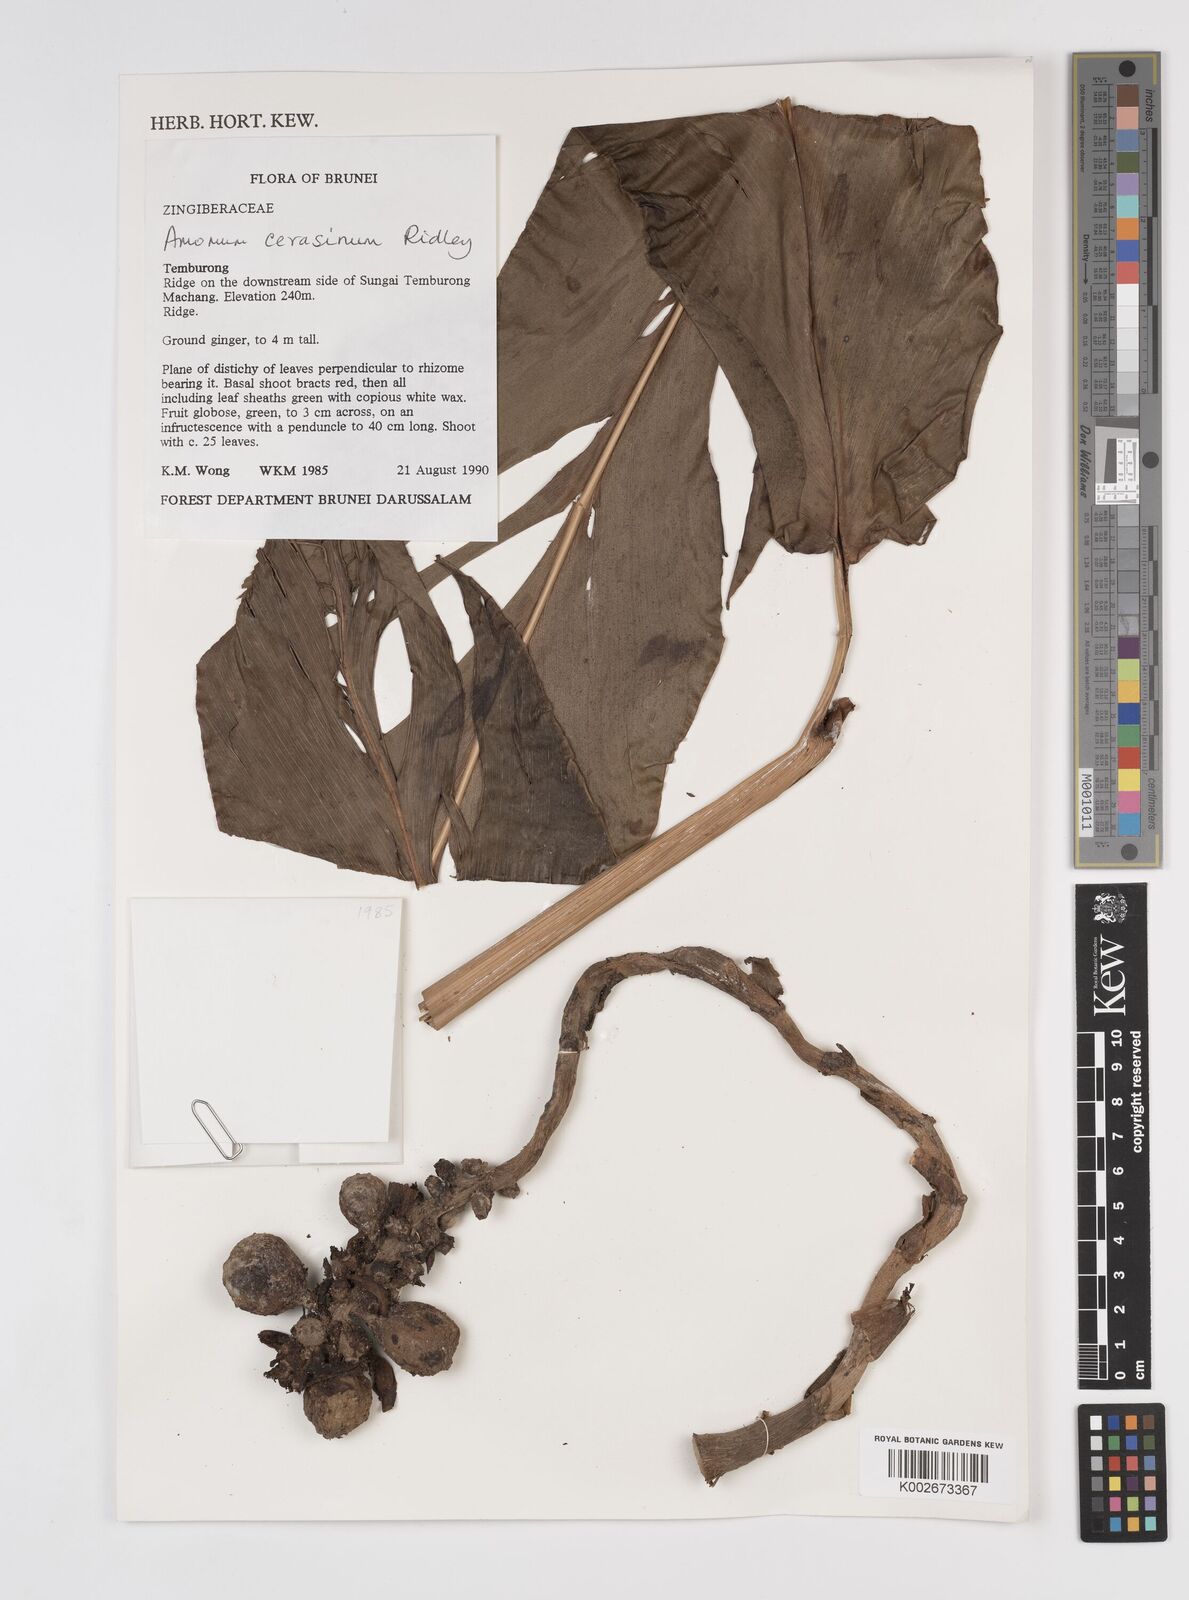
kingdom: Plantae
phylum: Tracheophyta
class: Liliopsida
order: Zingiberales
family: Zingiberaceae
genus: Meistera
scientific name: Meistera cerasina
